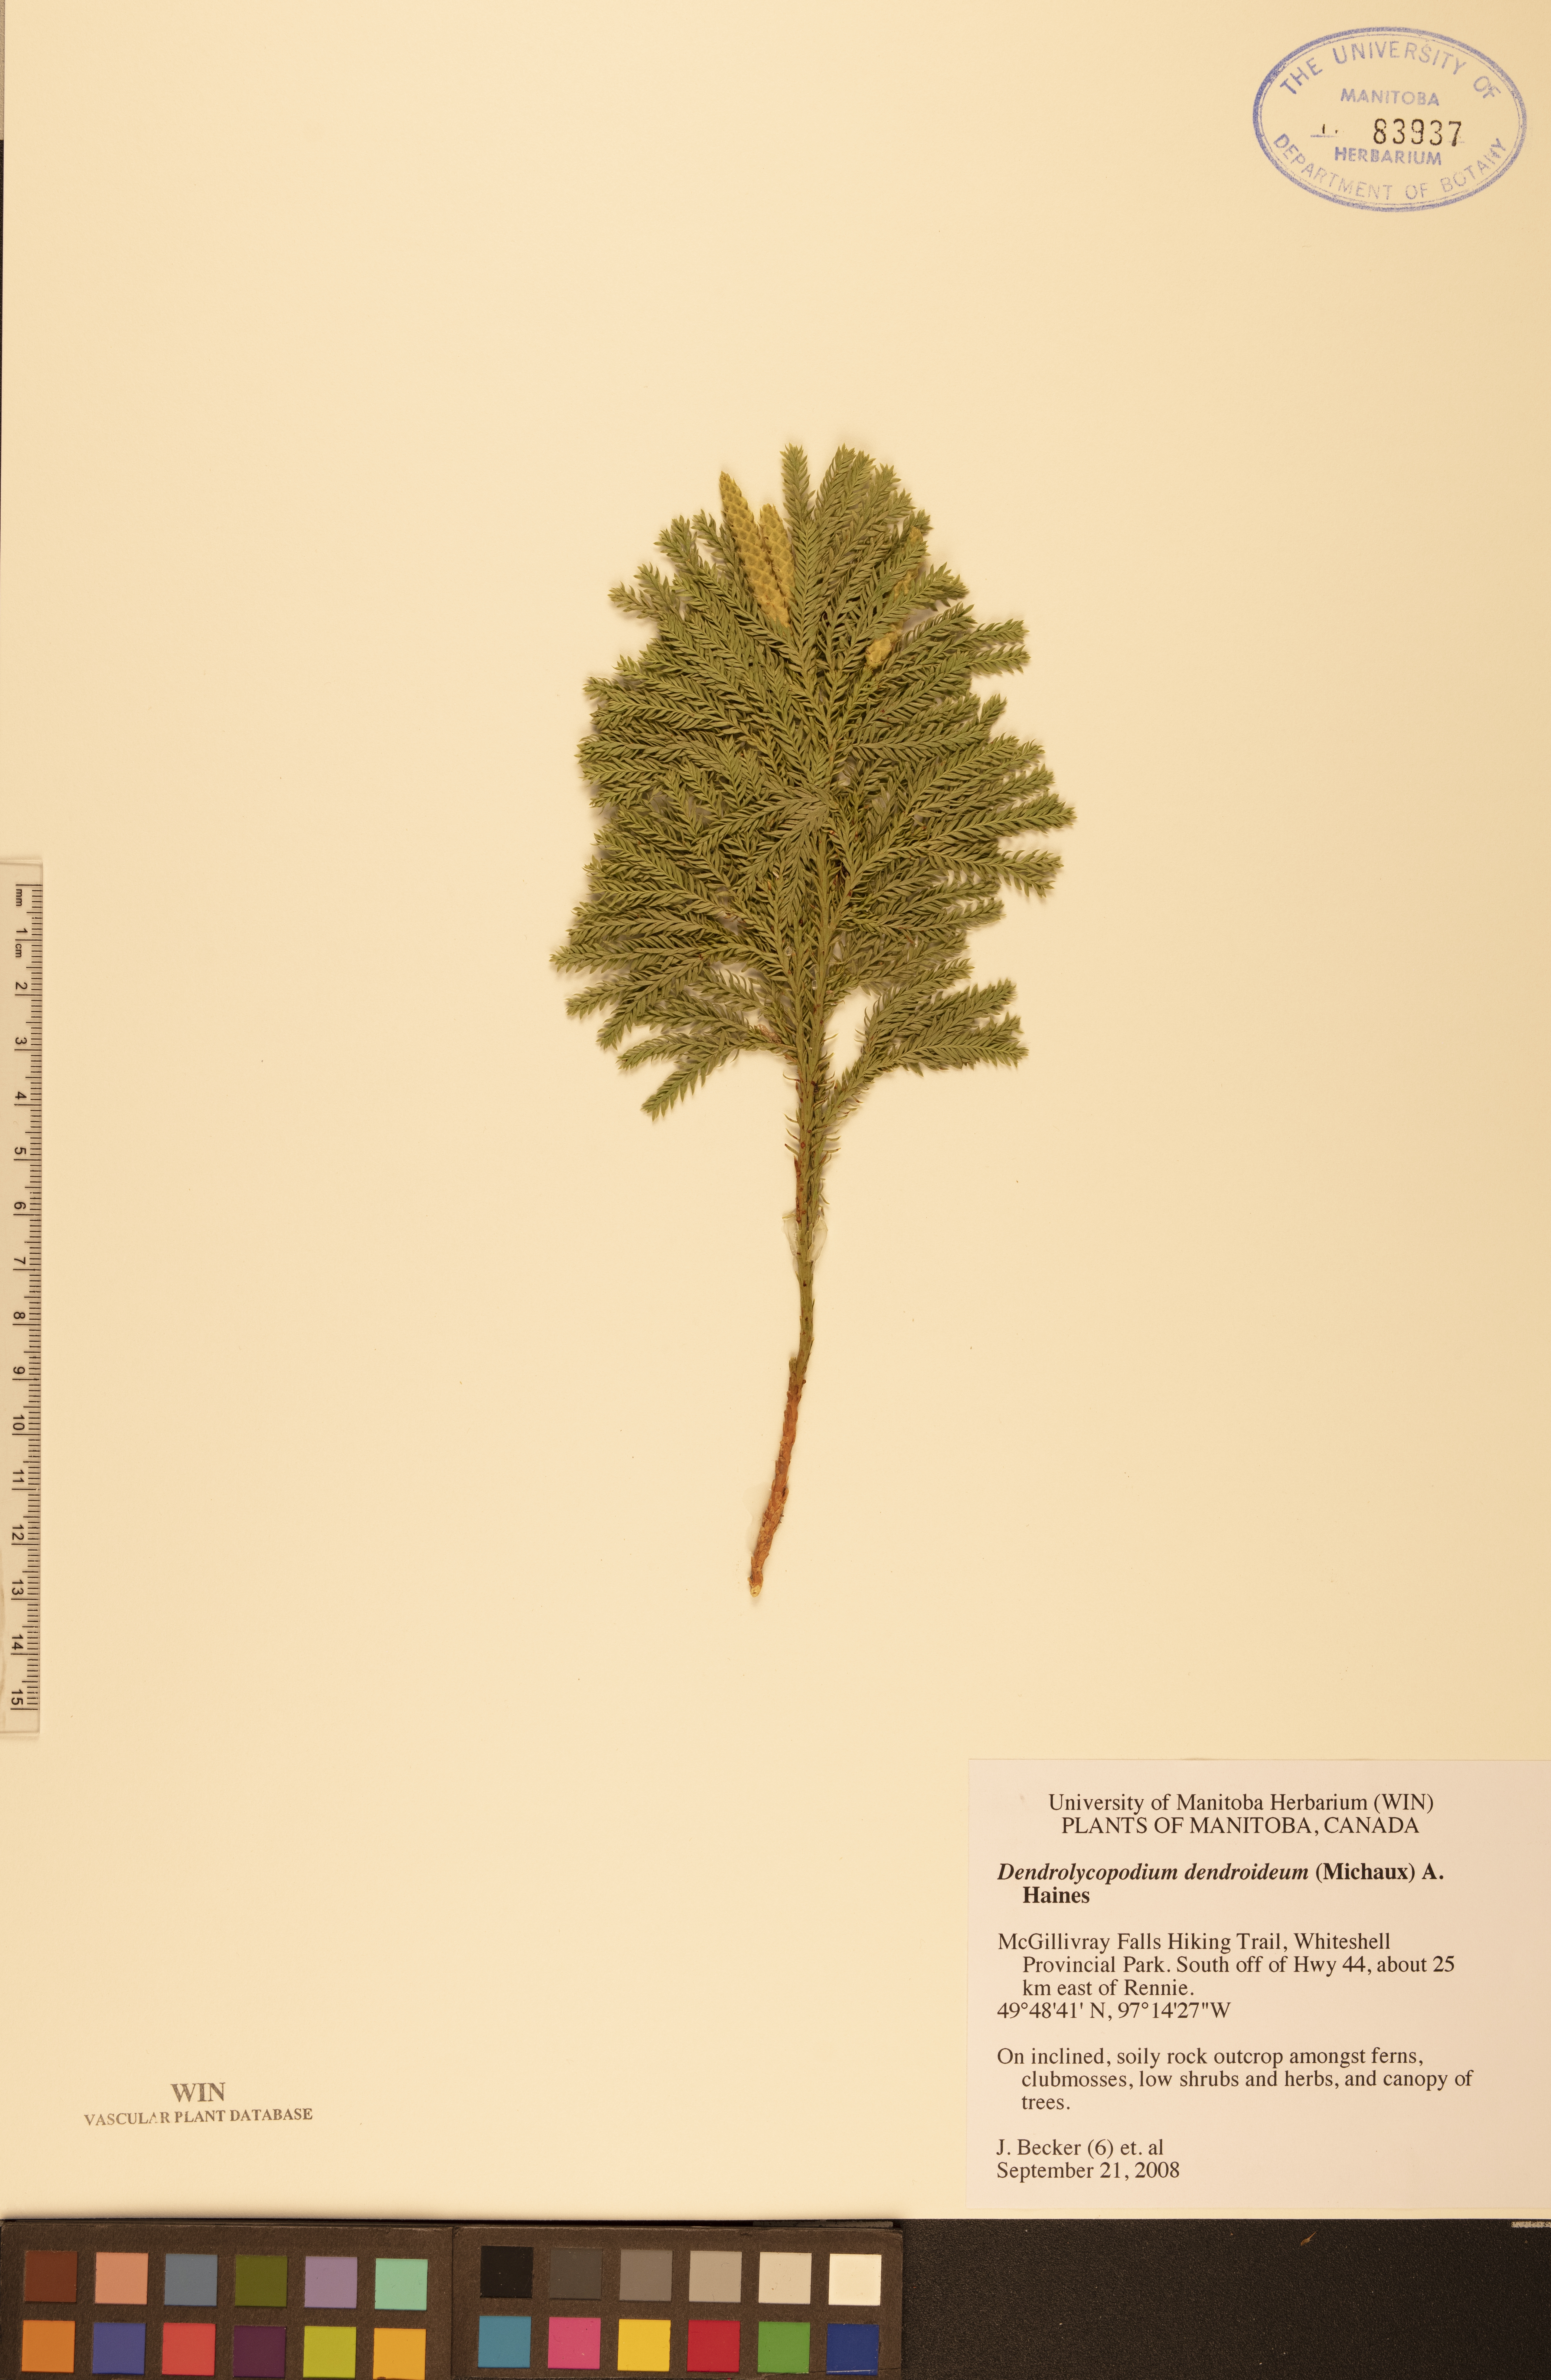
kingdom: Plantae
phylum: Tracheophyta
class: Lycopodiopsida
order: Lycopodiales
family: Lycopodiaceae
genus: Dendrolycopodium
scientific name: Dendrolycopodium dendroideum
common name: Northern tree-clubmoss
